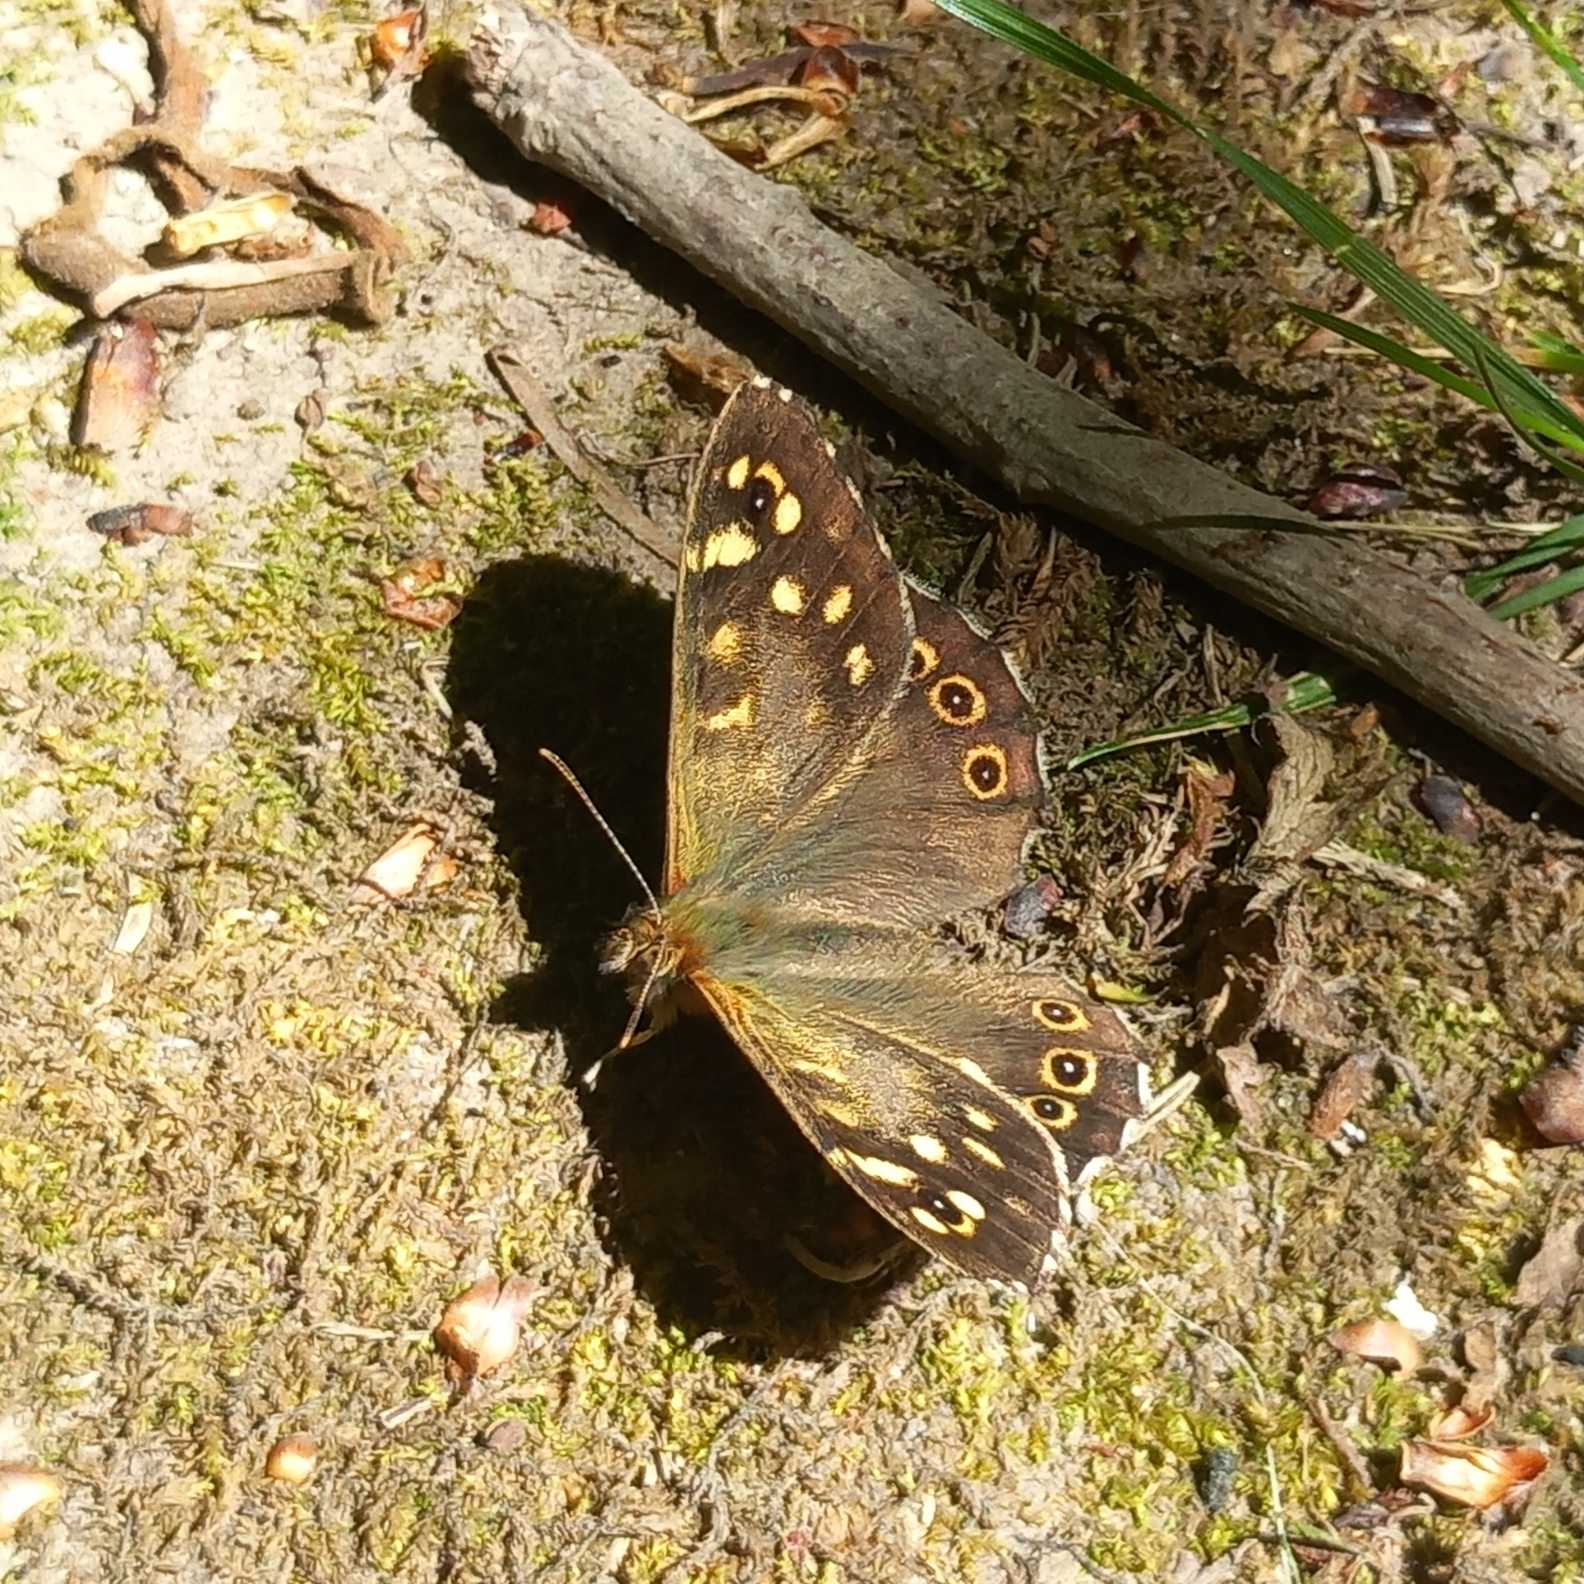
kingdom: Animalia
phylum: Arthropoda
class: Insecta
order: Lepidoptera
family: Nymphalidae
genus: Pararge
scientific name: Pararge aegeria
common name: Skovrandøje
